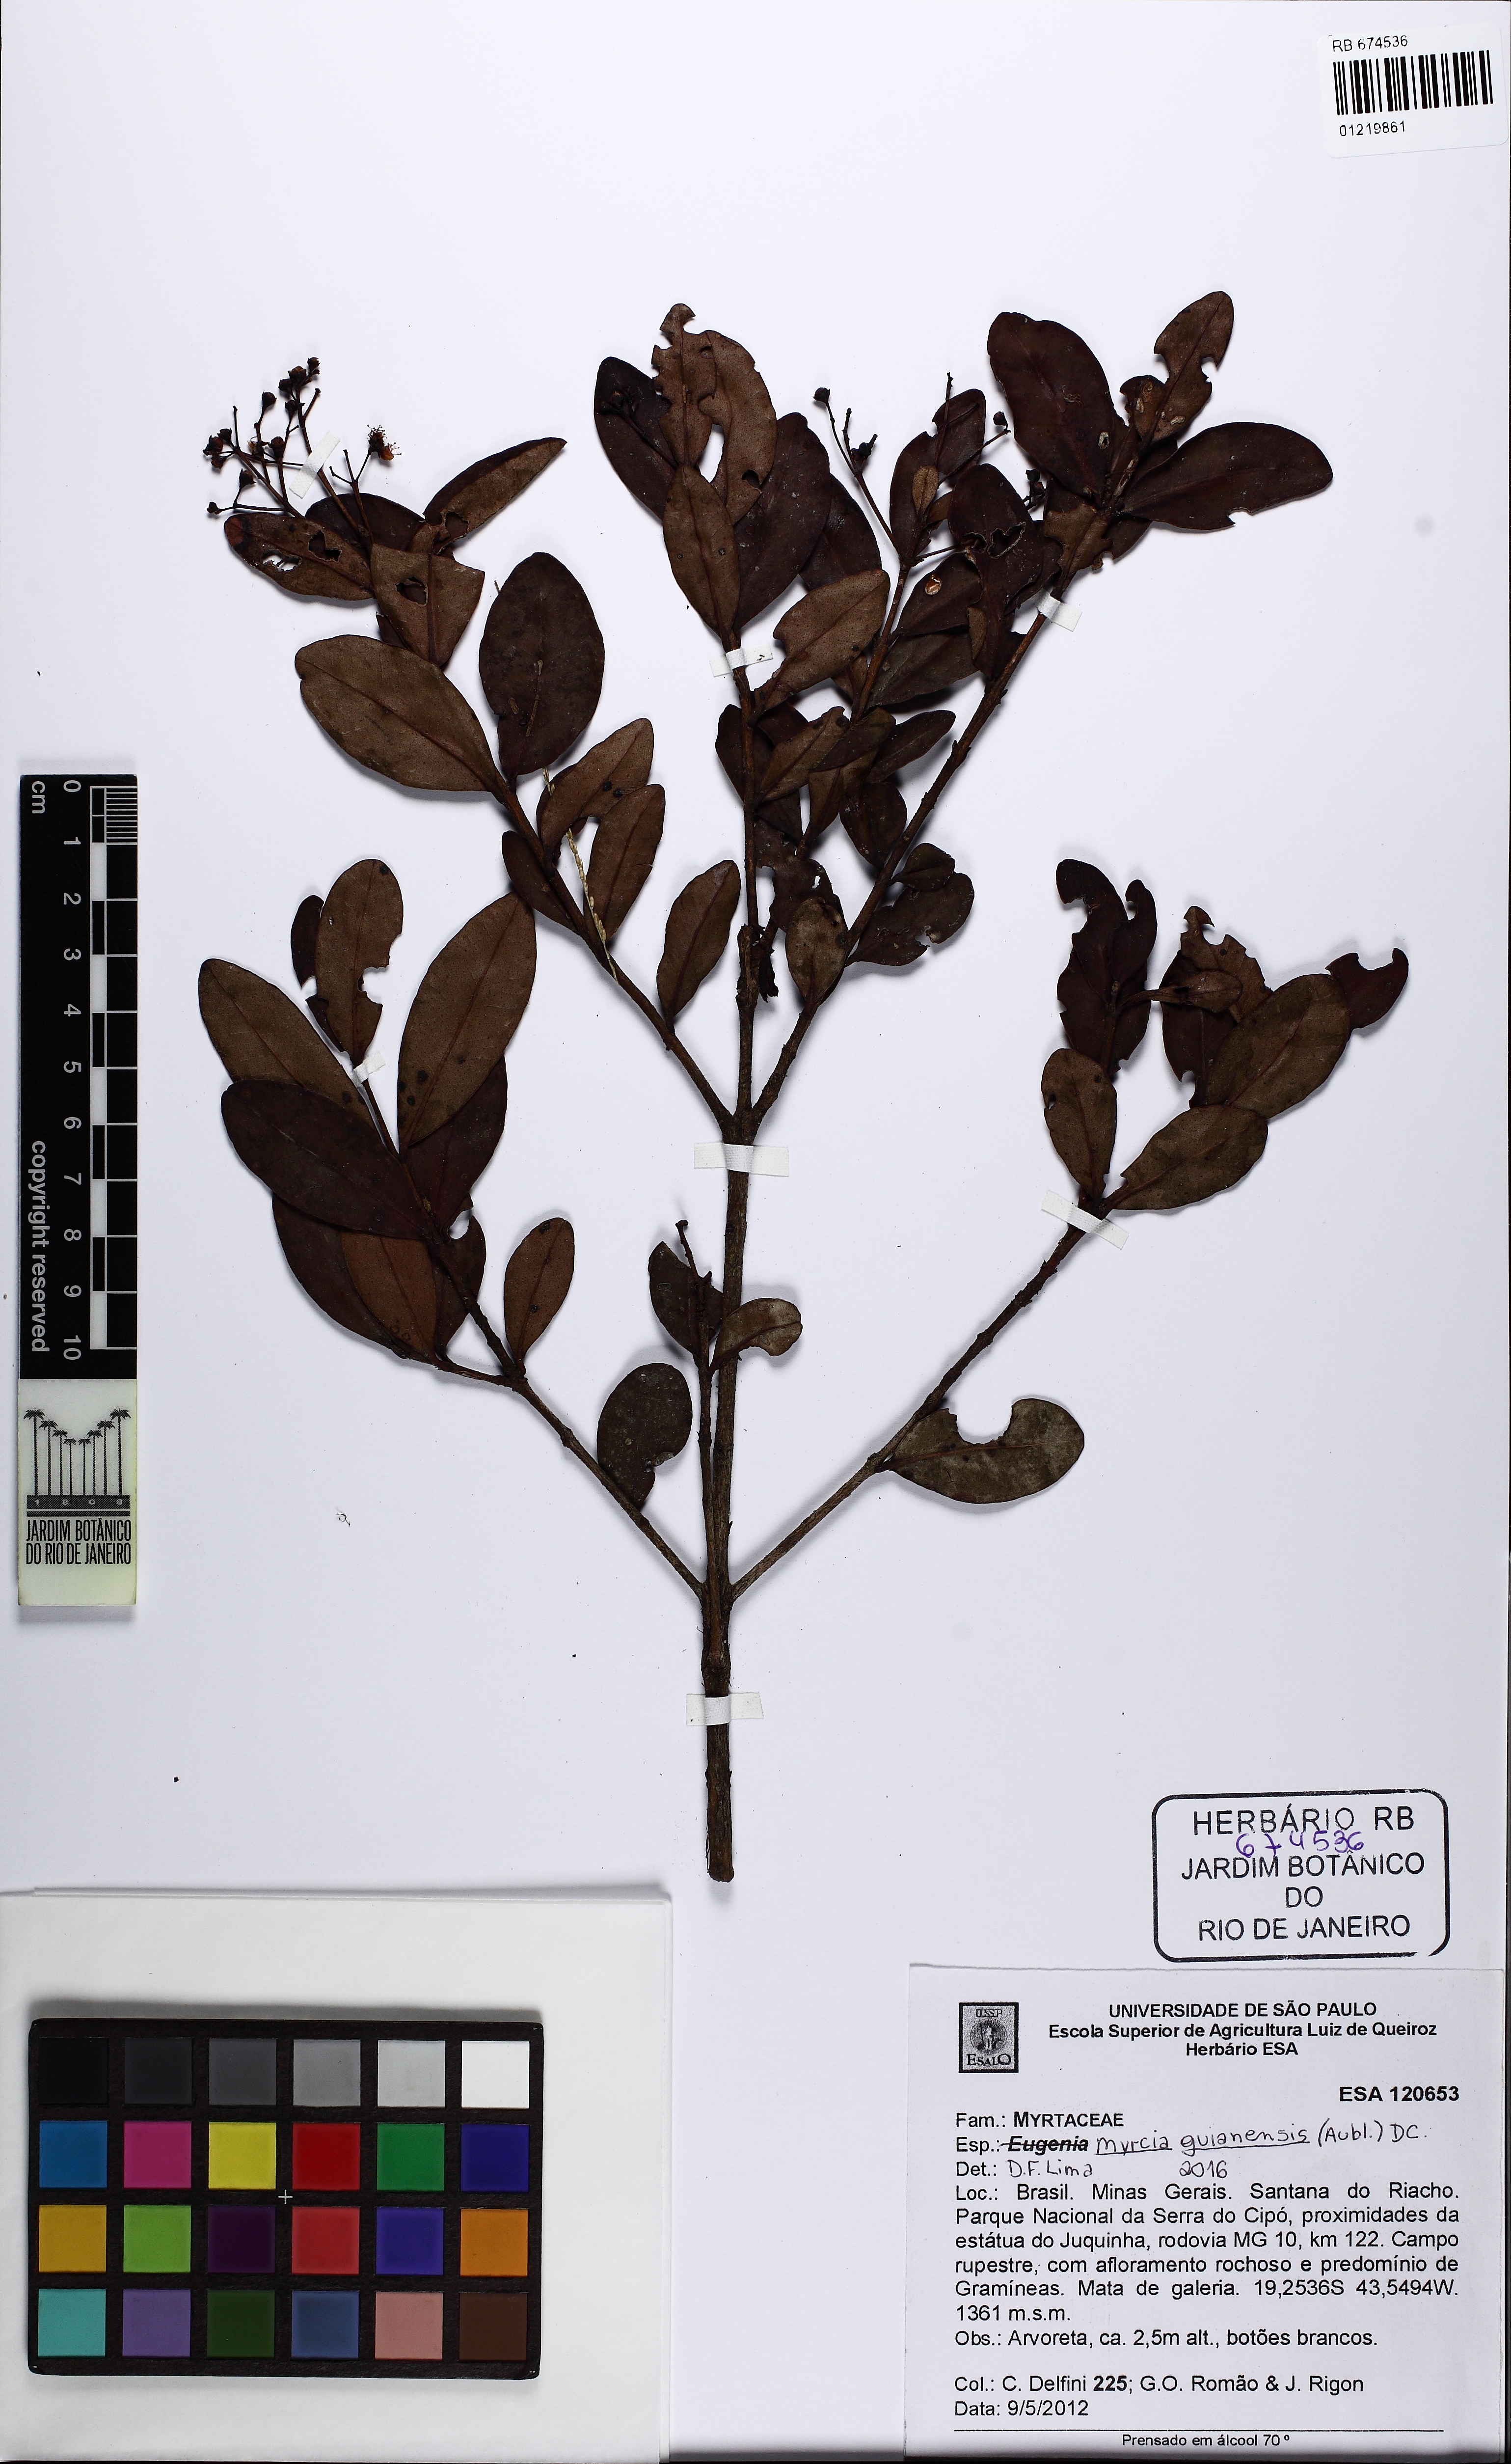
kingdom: Plantae
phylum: Tracheophyta
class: Magnoliopsida
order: Myrtales
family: Myrtaceae
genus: Myrcia
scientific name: Myrcia guianensis
